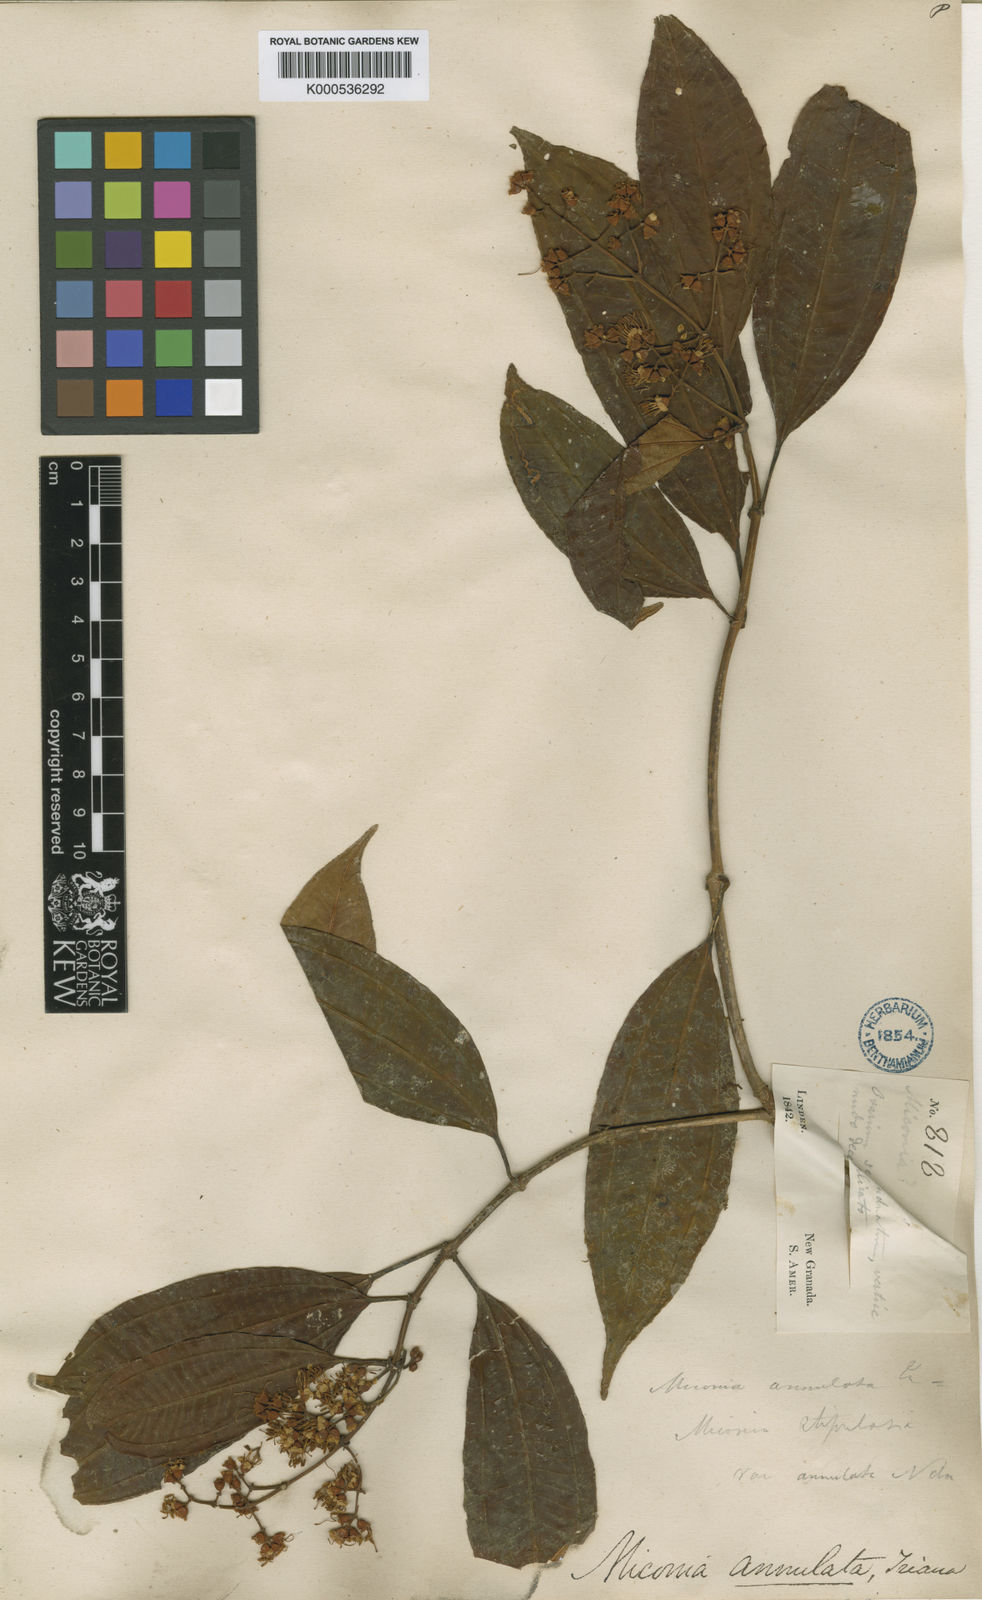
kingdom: Plantae
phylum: Tracheophyta
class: Magnoliopsida
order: Myrtales
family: Melastomataceae
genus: Miconia
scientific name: Miconia annulata
